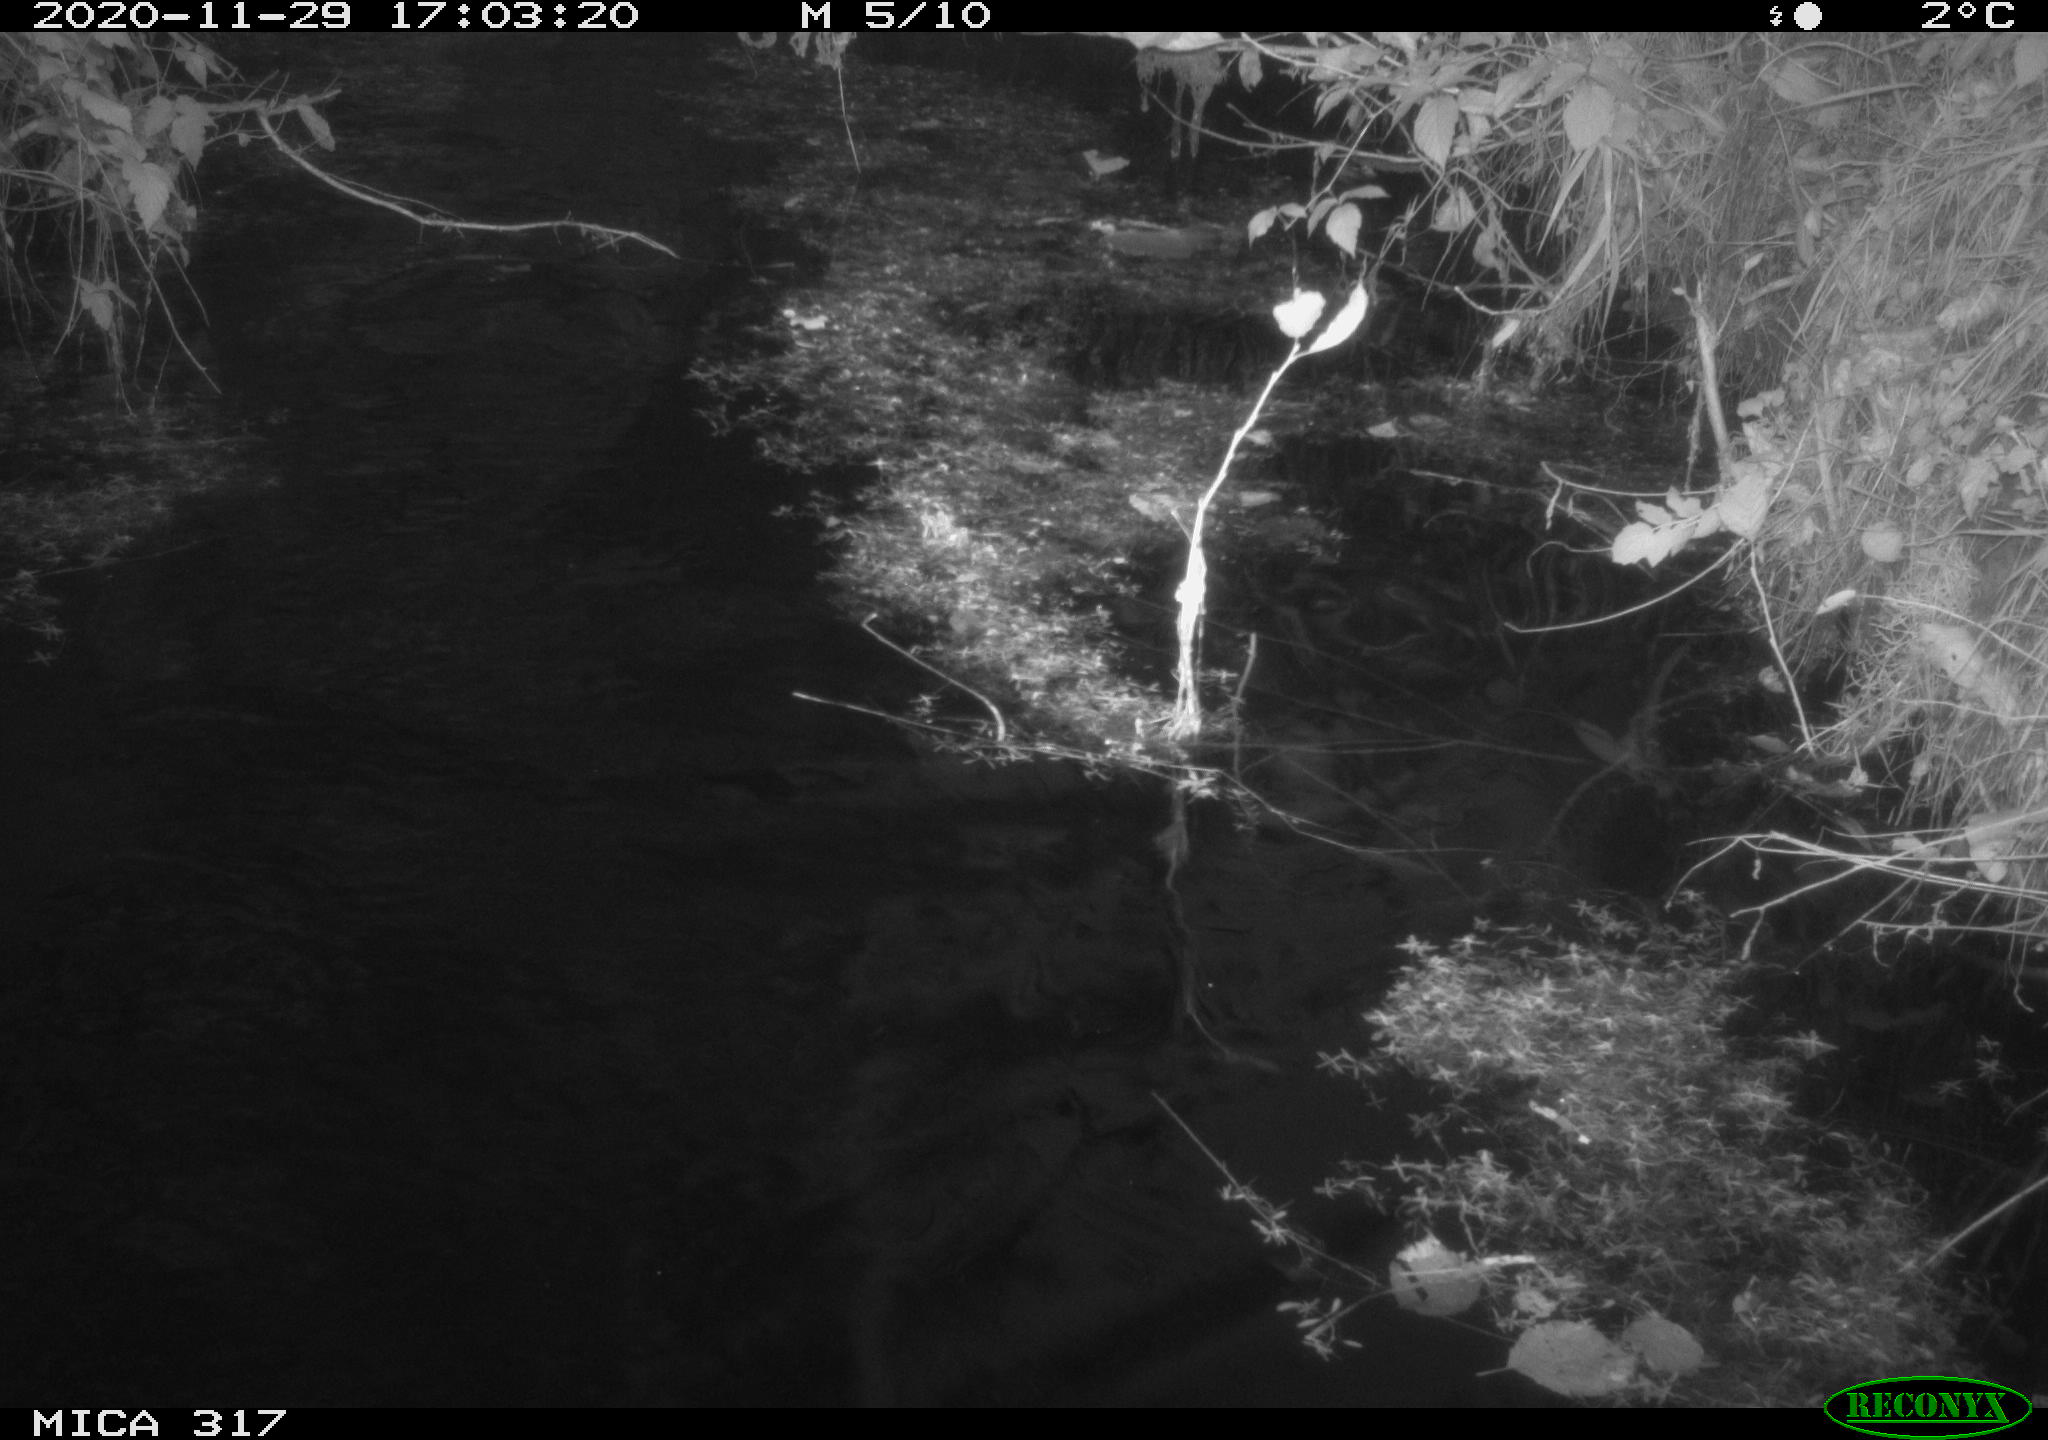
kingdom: Animalia
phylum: Chordata
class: Aves
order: Gruiformes
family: Rallidae
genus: Fulica
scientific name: Fulica atra
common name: Eurasian coot
